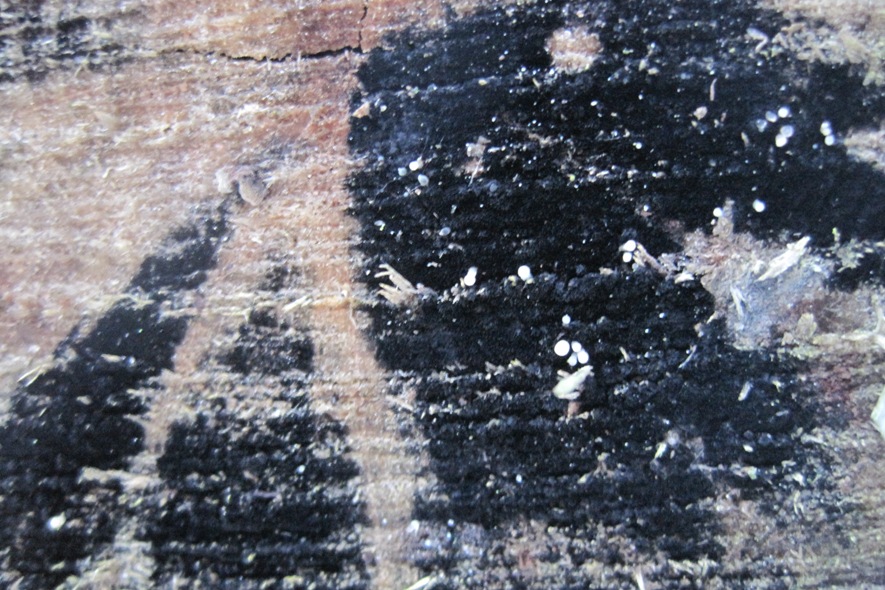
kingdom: Fungi
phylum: Ascomycota
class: Leotiomycetes
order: Helotiales
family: Helotiaceae
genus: Bispora
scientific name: Bispora pallescens
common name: måtte-snitskive
